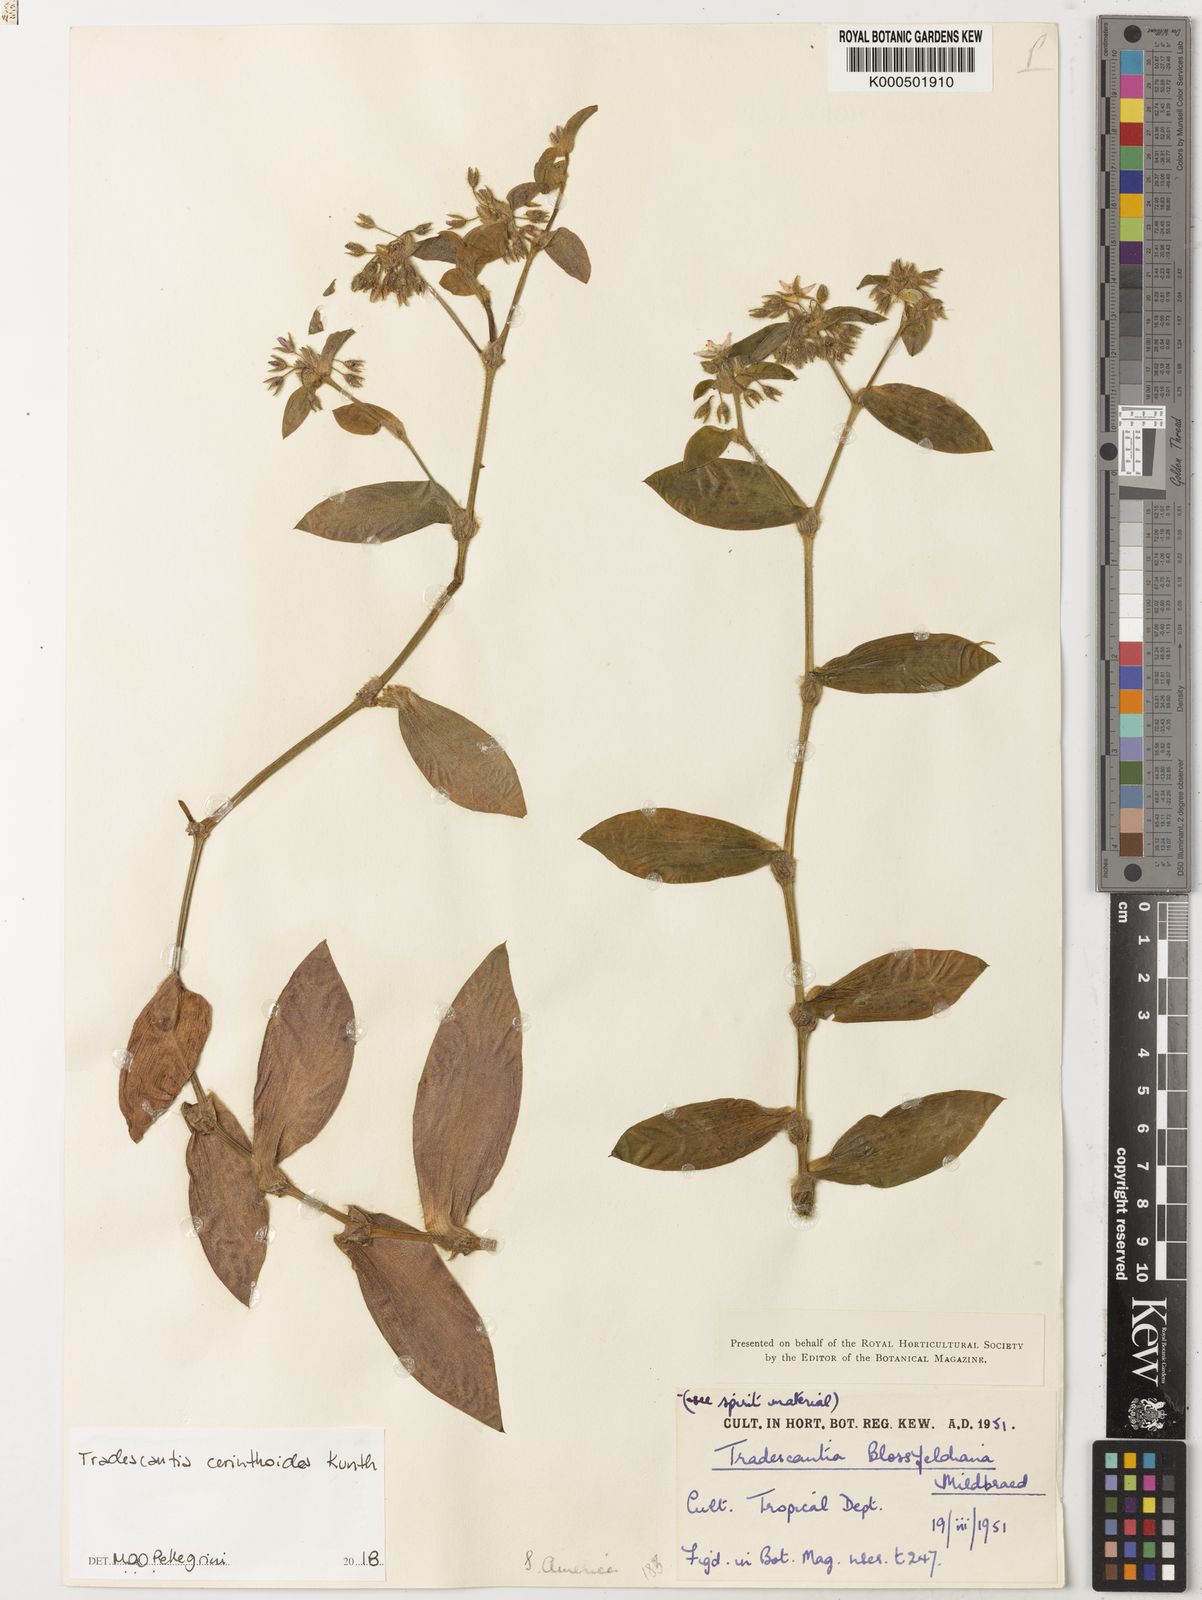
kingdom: Plantae
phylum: Tracheophyta
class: Liliopsida
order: Commelinales
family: Commelinaceae
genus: Tradescantia
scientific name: Tradescantia cerinthoides
